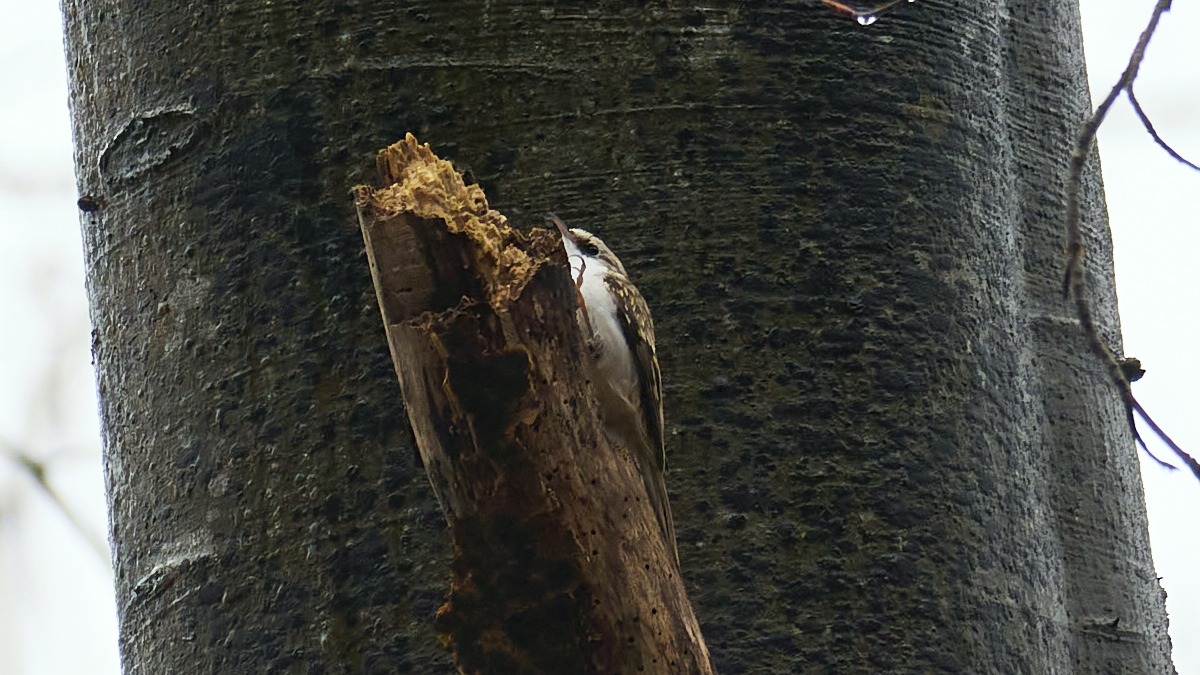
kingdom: Animalia
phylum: Chordata
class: Aves
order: Passeriformes
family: Certhiidae
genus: Certhia
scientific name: Certhia familiaris
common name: Træløber
